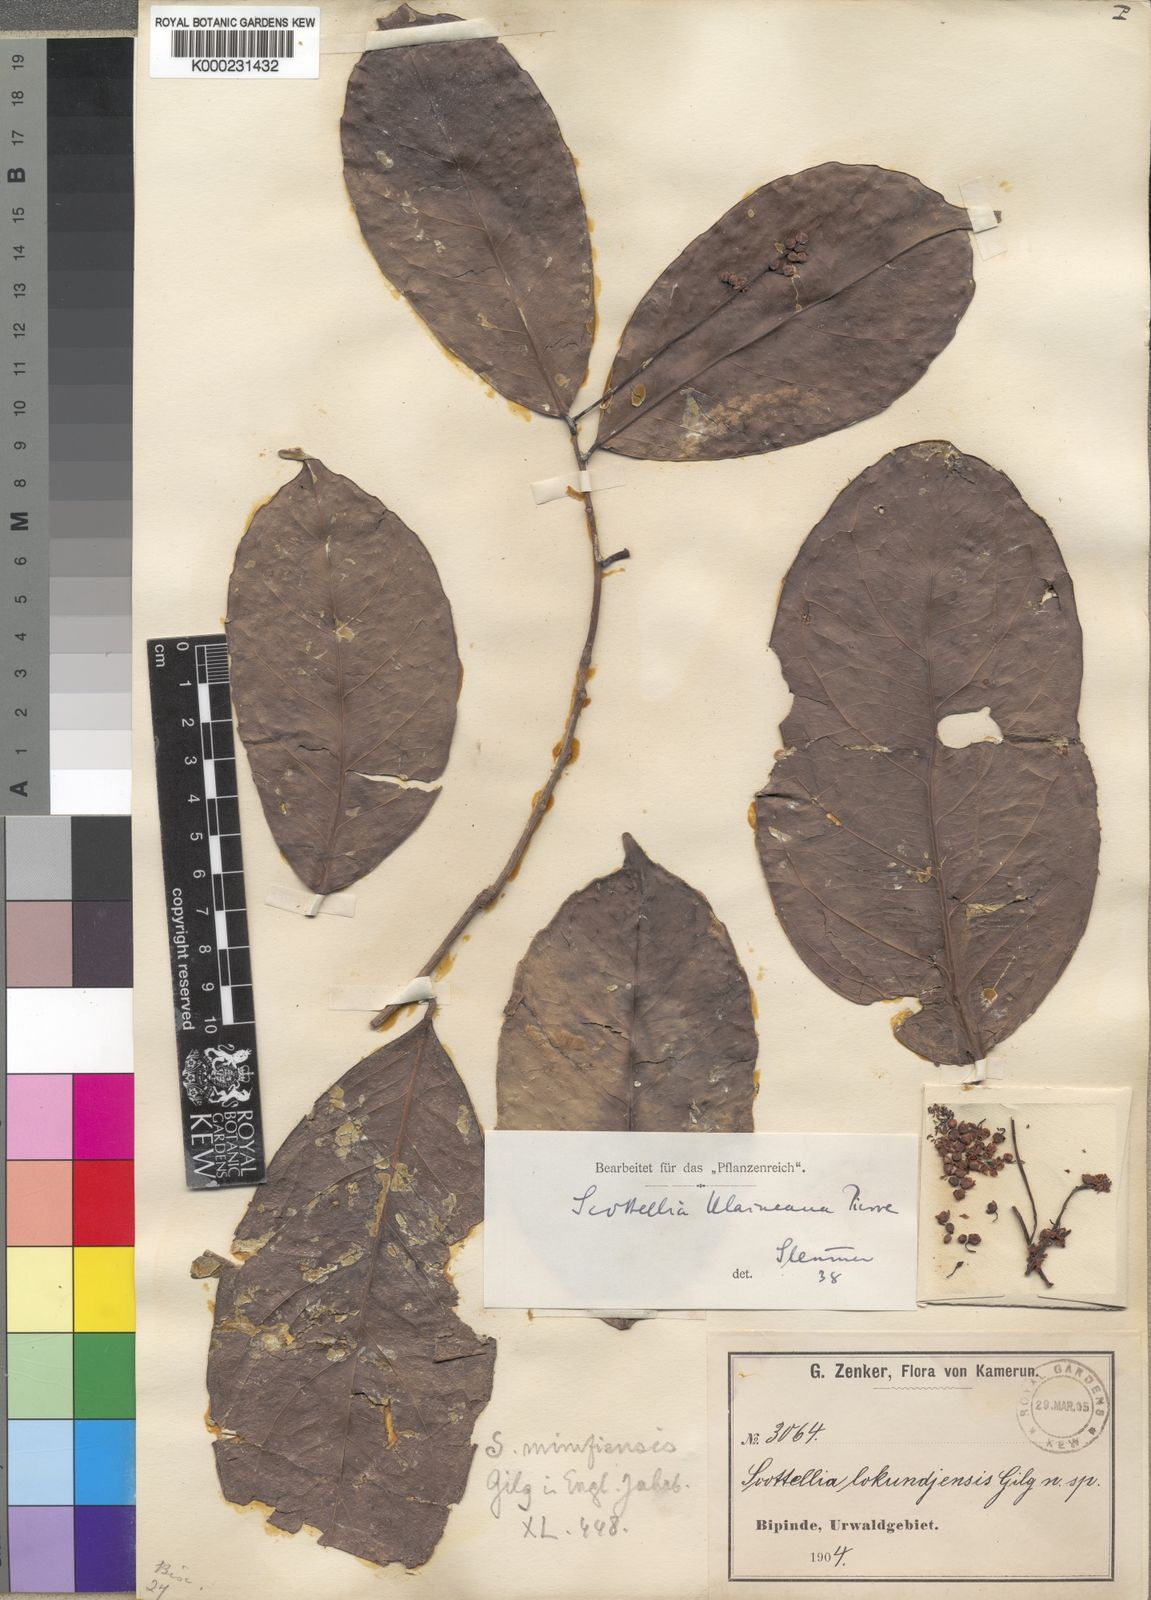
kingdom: Plantae
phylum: Tracheophyta
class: Magnoliopsida
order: Malpighiales
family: Achariaceae
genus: Scottellia
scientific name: Scottellia
